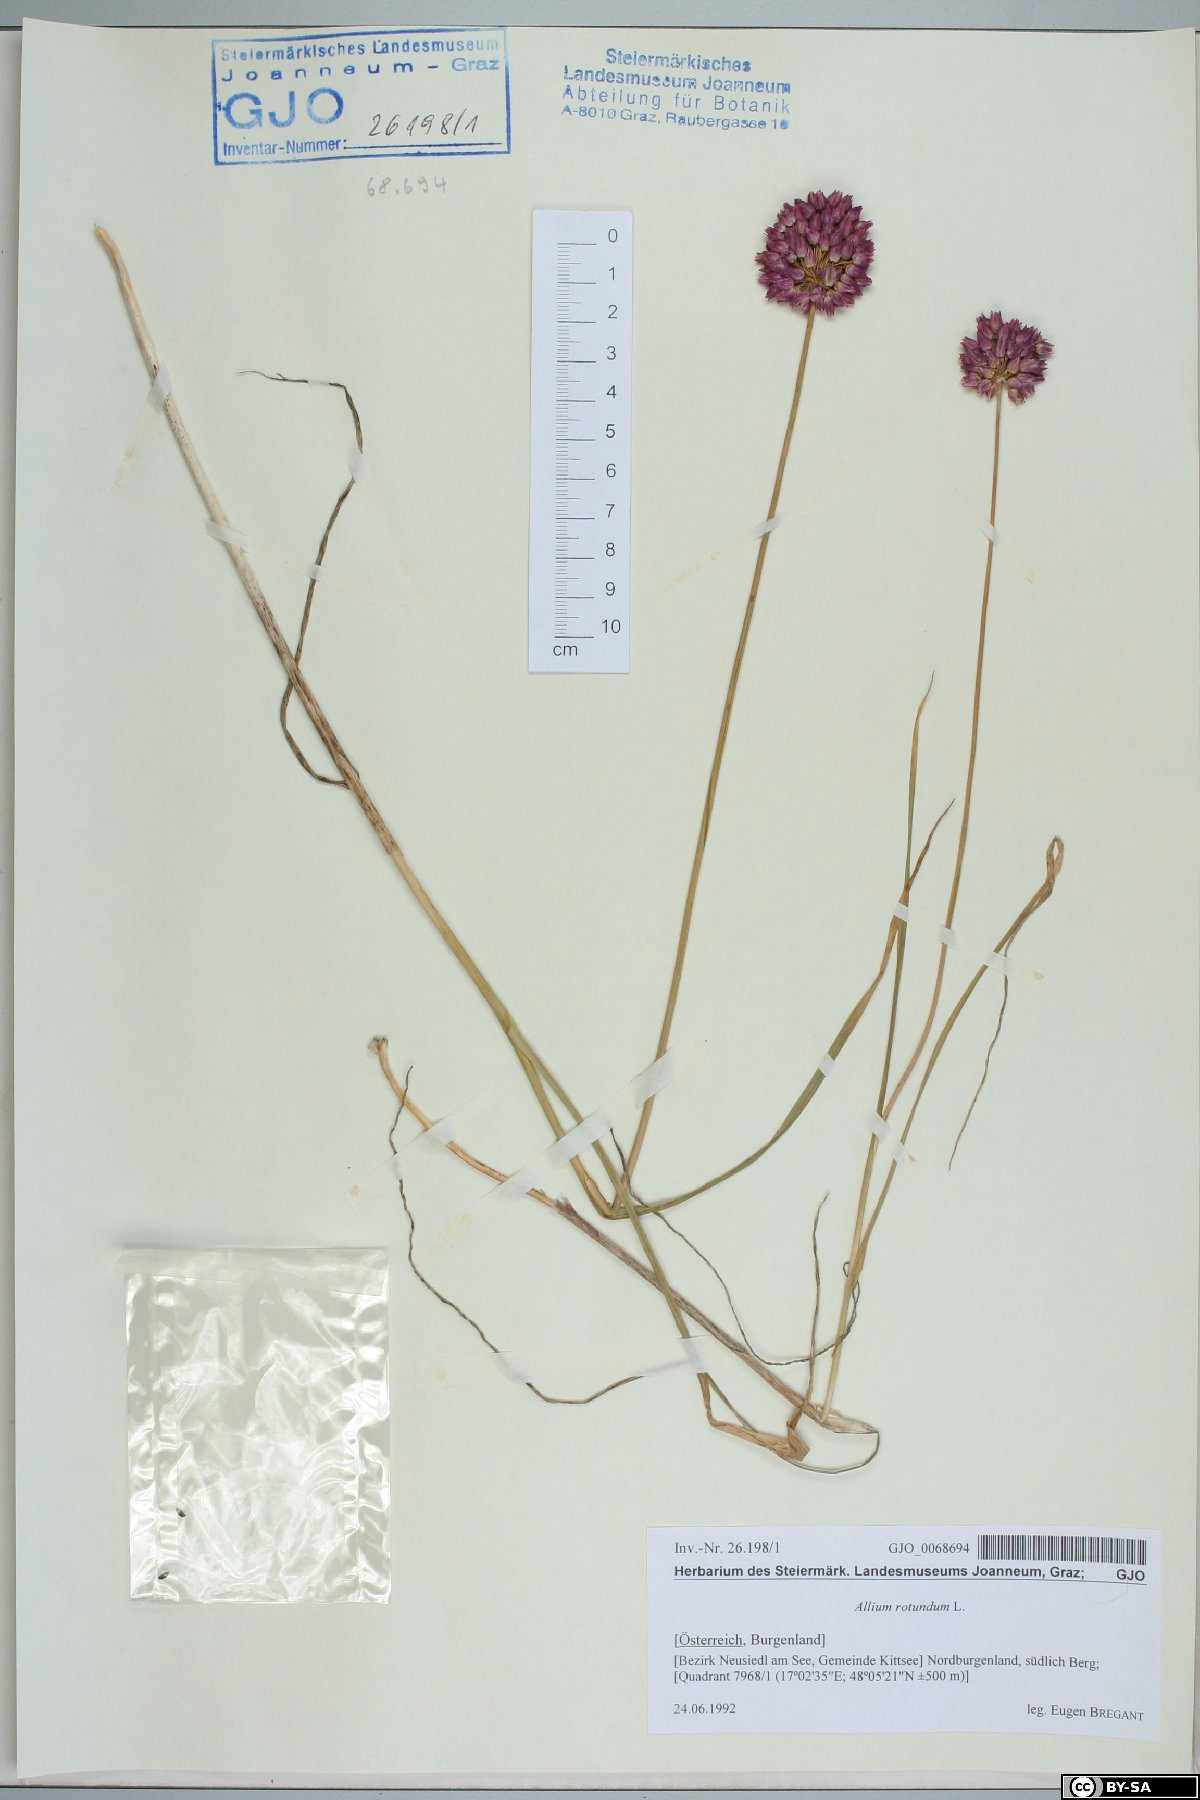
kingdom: Plantae
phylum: Tracheophyta
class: Liliopsida
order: Asparagales
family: Amaryllidaceae
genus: Allium
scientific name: Allium rotundum
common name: Sand leek
